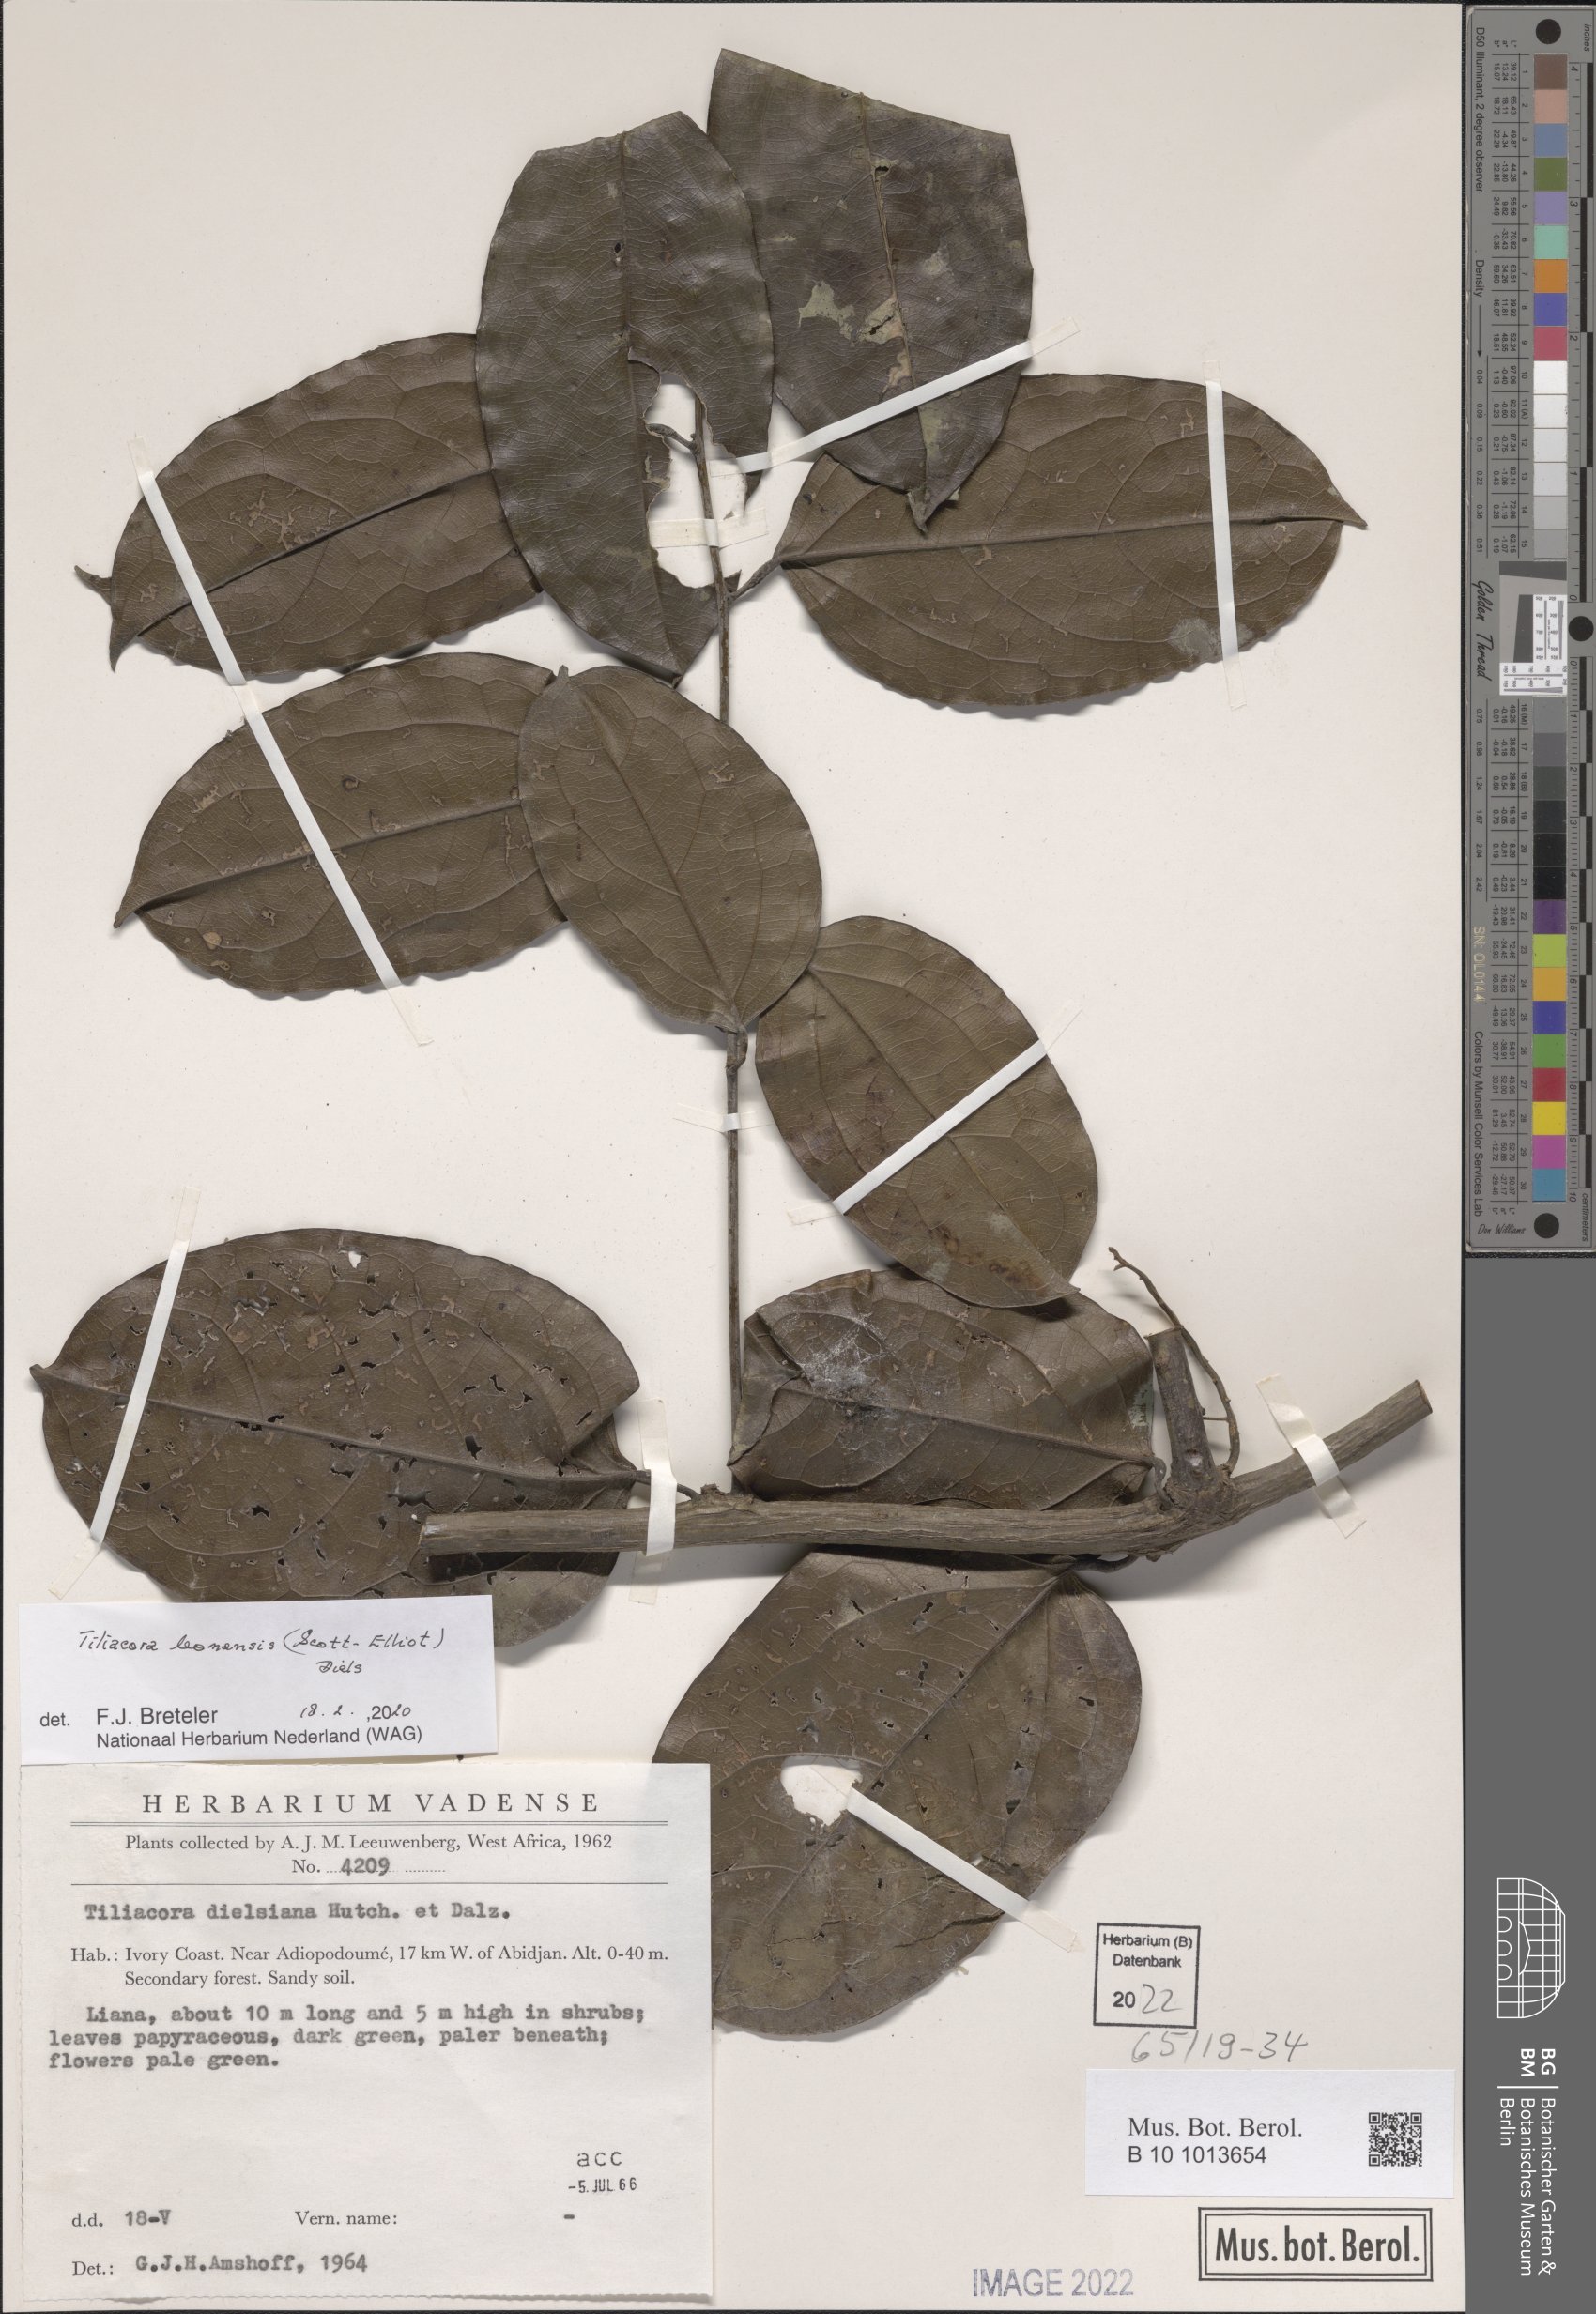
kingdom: Plantae
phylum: Tracheophyta
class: Magnoliopsida
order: Ranunculales
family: Menispermaceae
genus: Tiliacora
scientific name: Tiliacora leonensis
